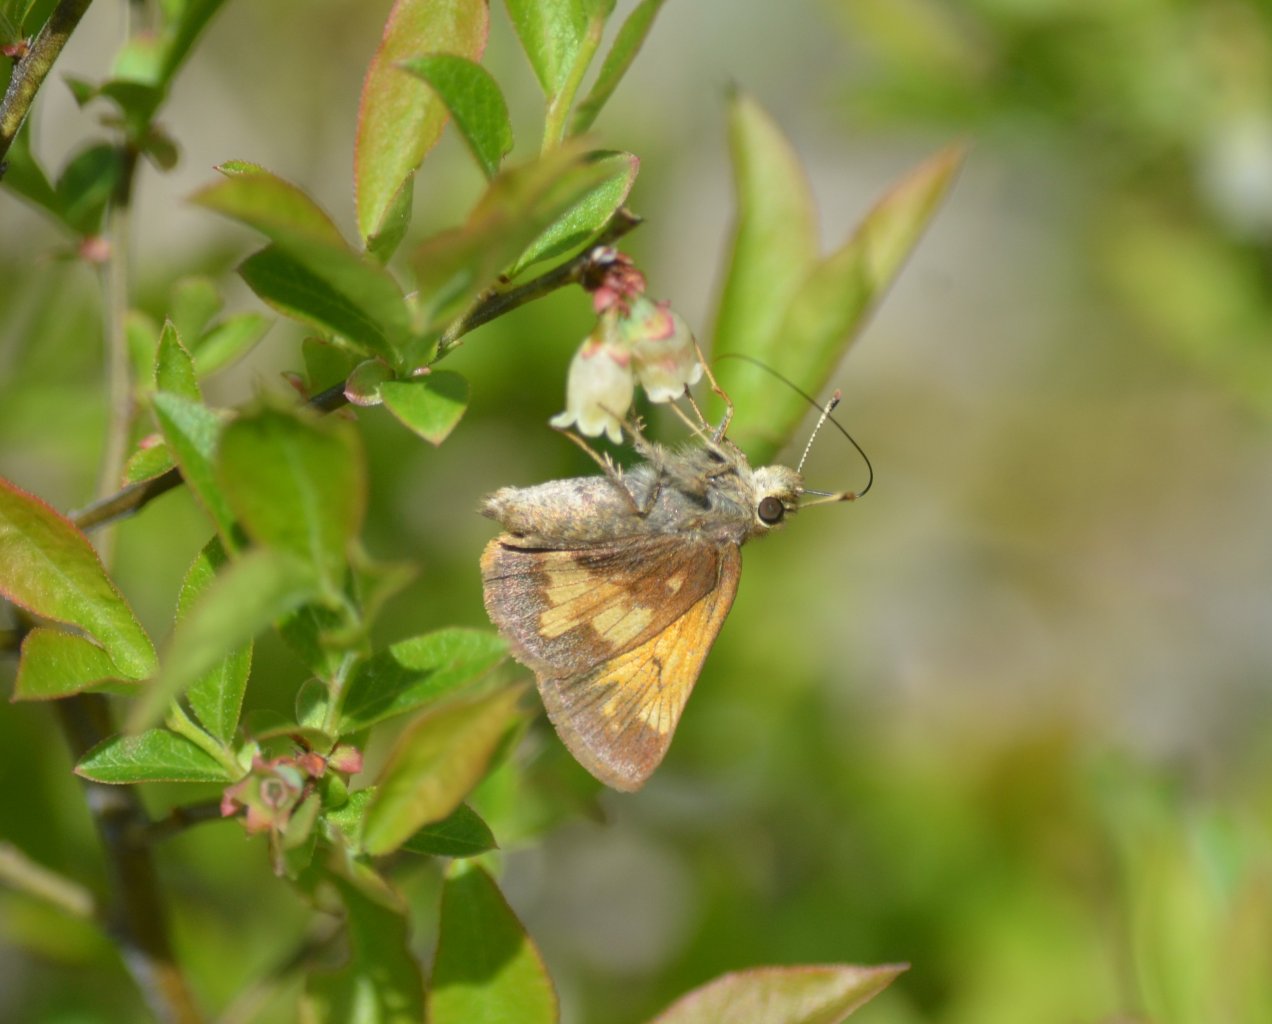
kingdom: Animalia
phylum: Arthropoda
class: Insecta
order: Lepidoptera
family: Hesperiidae
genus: Lon
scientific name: Lon hobomok
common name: Hobomok Skipper
